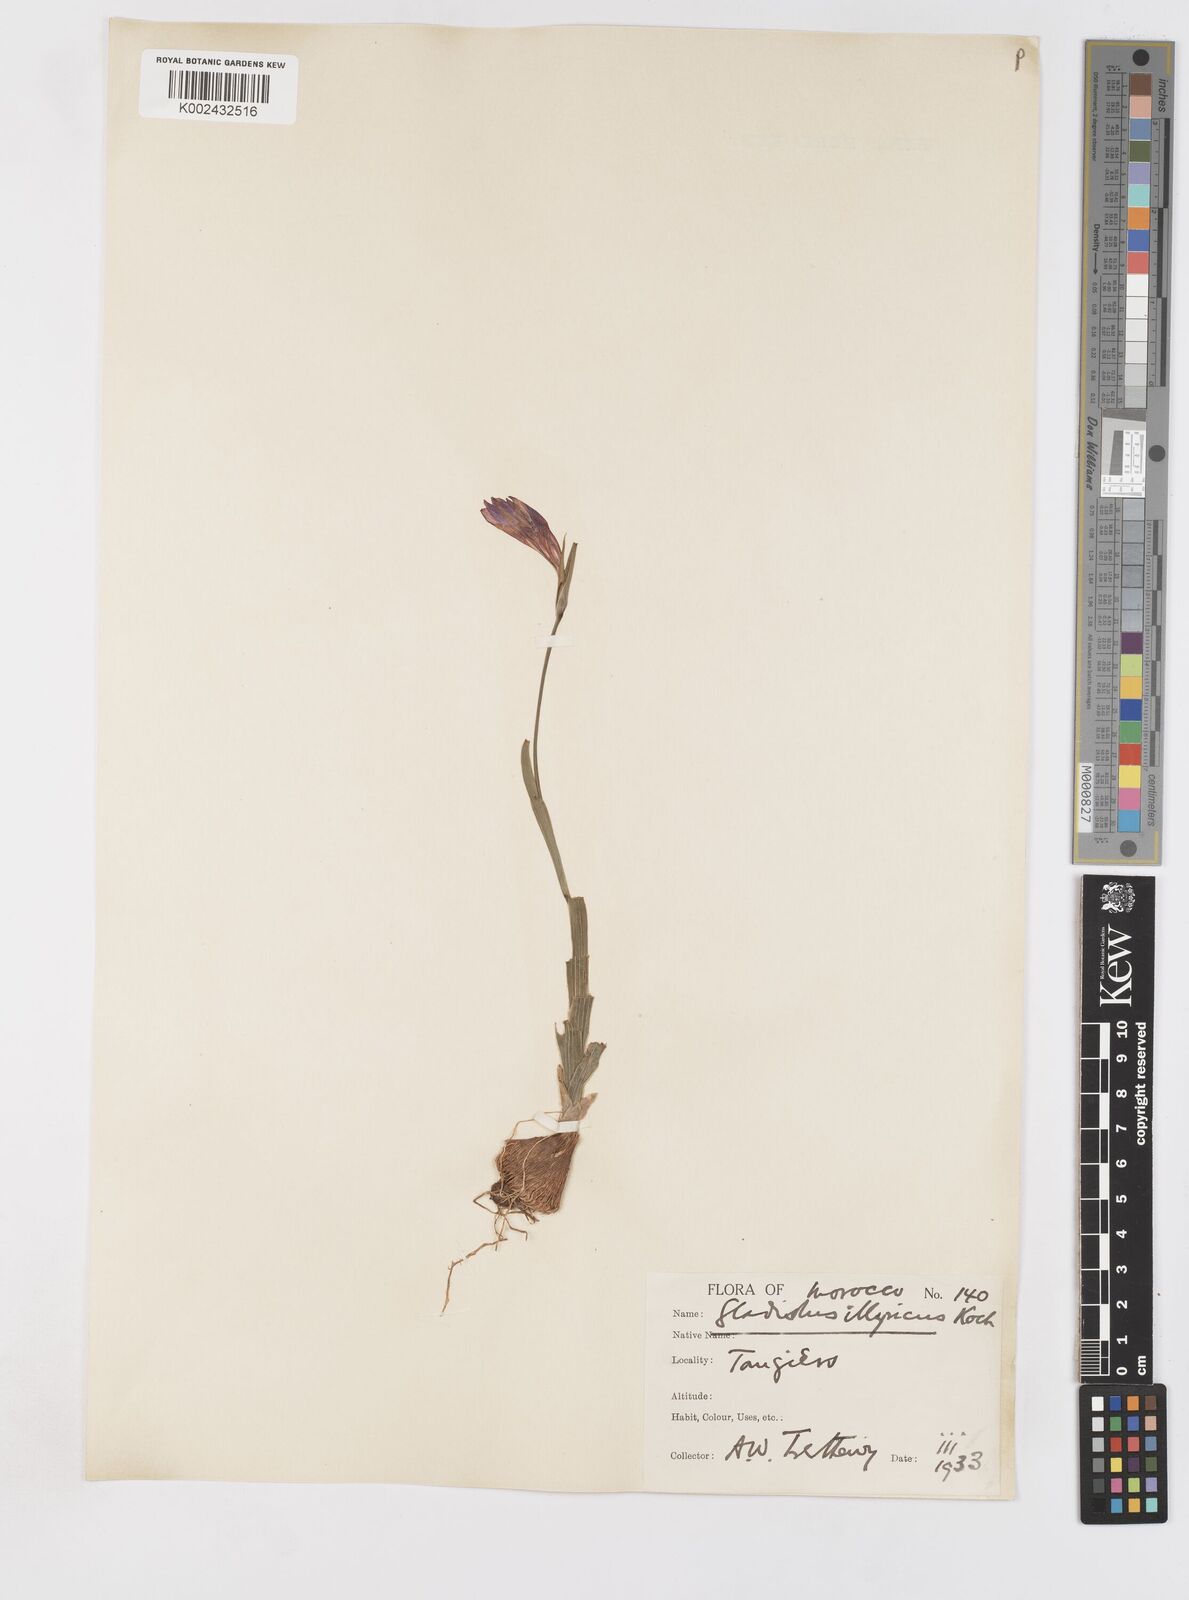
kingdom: Plantae
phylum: Tracheophyta
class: Liliopsida
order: Asparagales
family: Iridaceae
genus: Gladiolus
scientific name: Gladiolus illyricus
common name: Wild gladiolus
